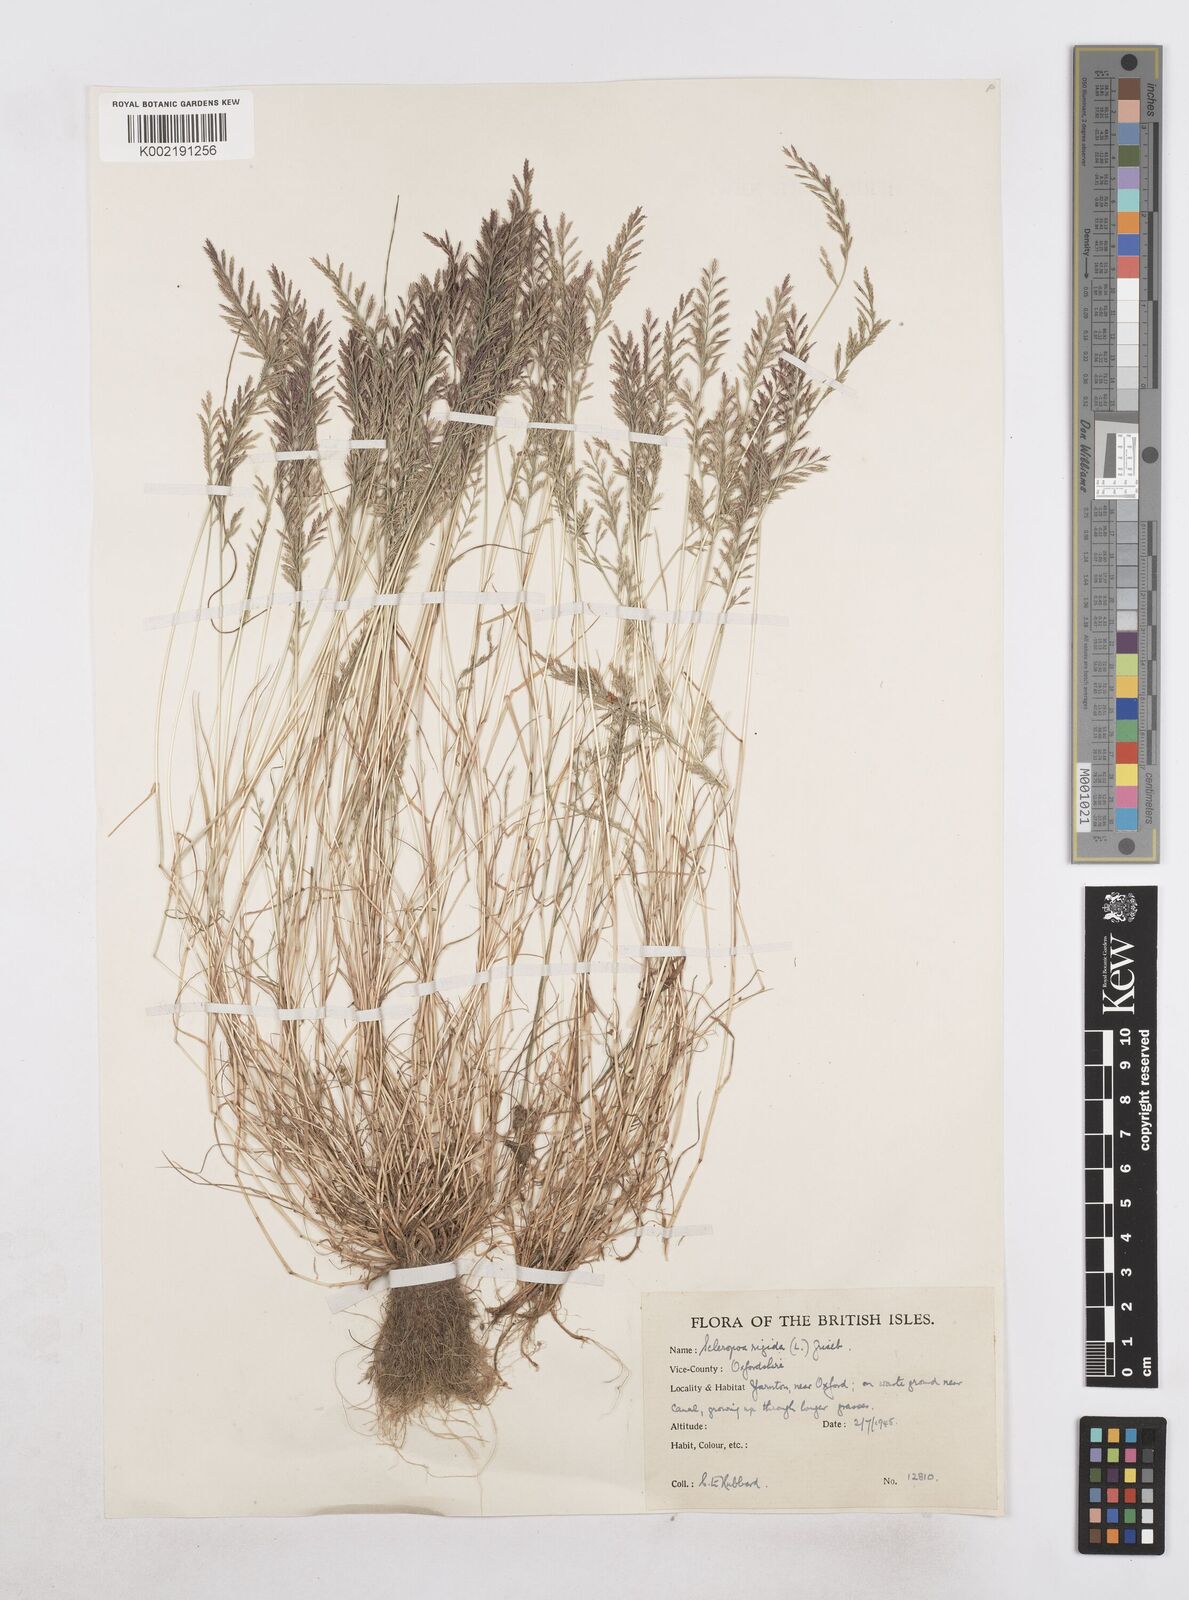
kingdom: Plantae
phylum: Tracheophyta
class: Liliopsida
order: Poales
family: Poaceae
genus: Catapodium
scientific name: Catapodium rigidum
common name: Fern-grass
